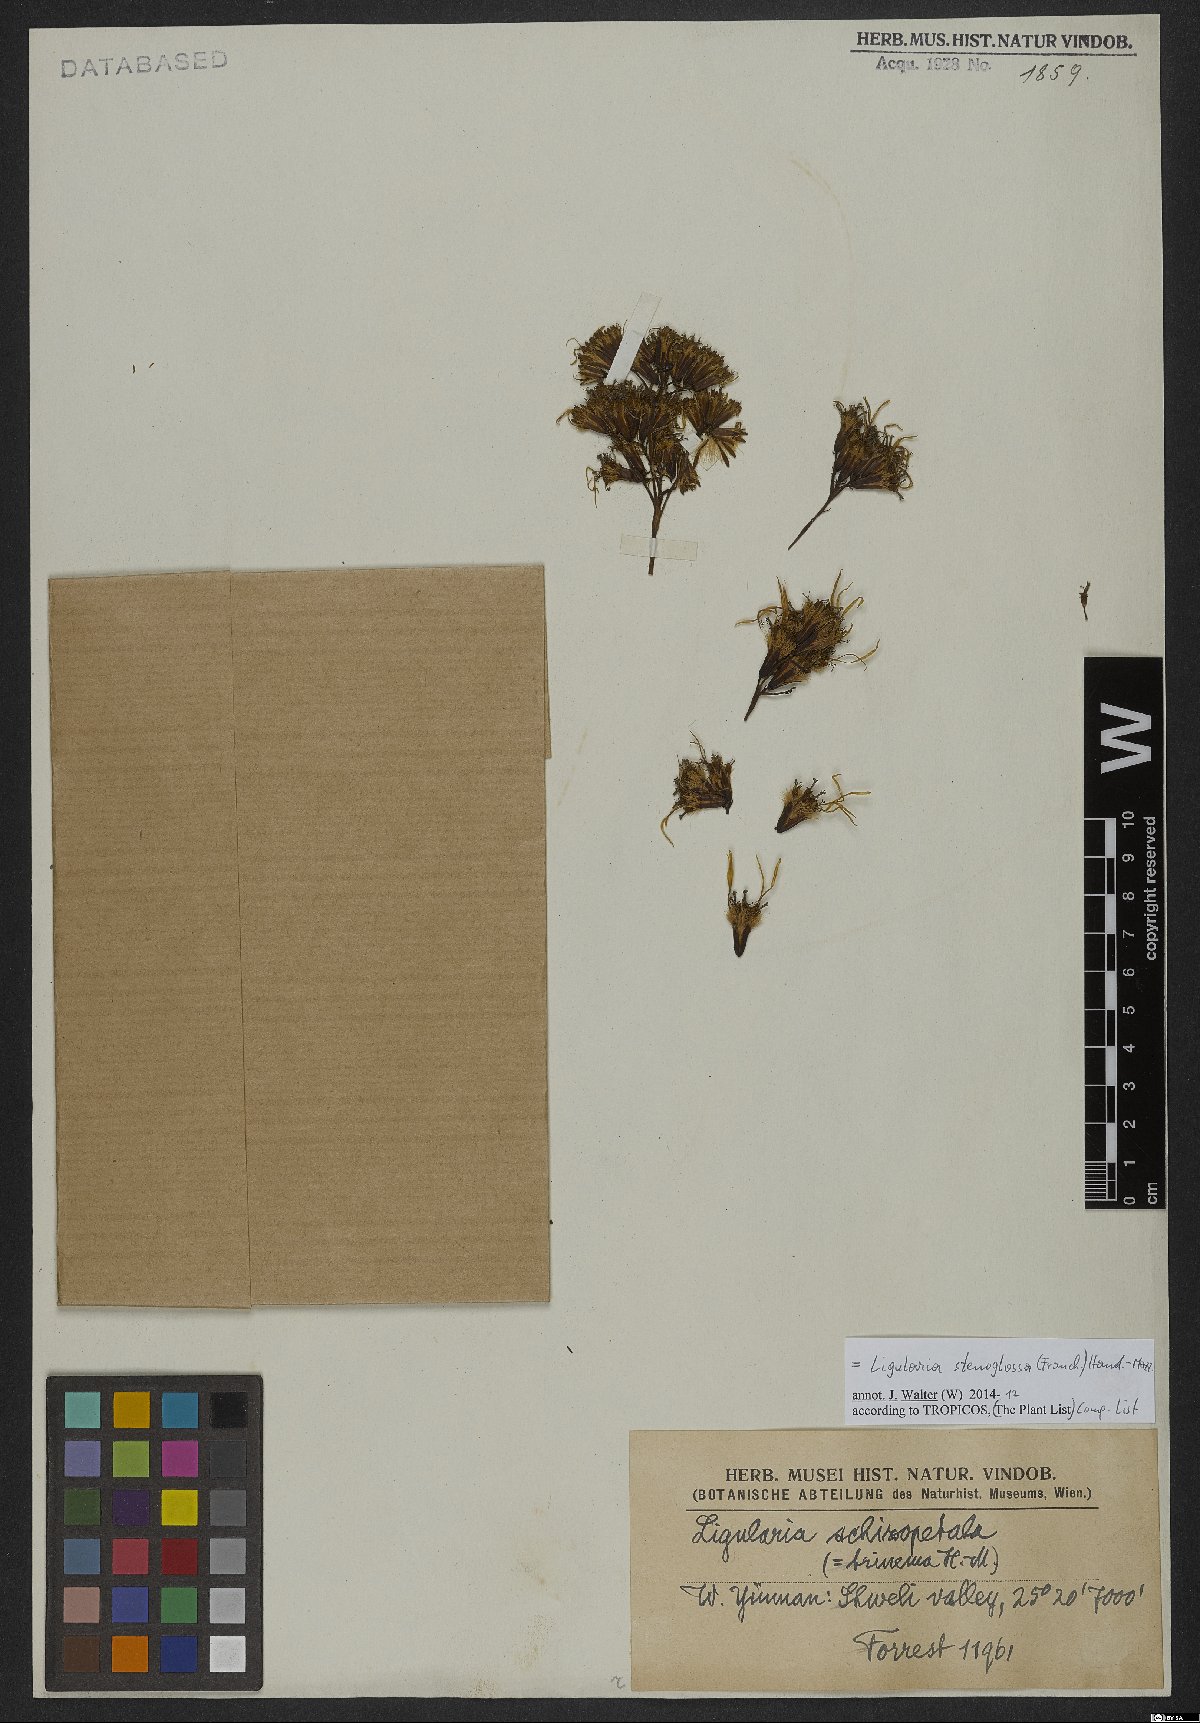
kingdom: Plantae
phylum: Tracheophyta
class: Magnoliopsida
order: Asterales
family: Asteraceae
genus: Ligularia
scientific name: Ligularia stenoglossa
